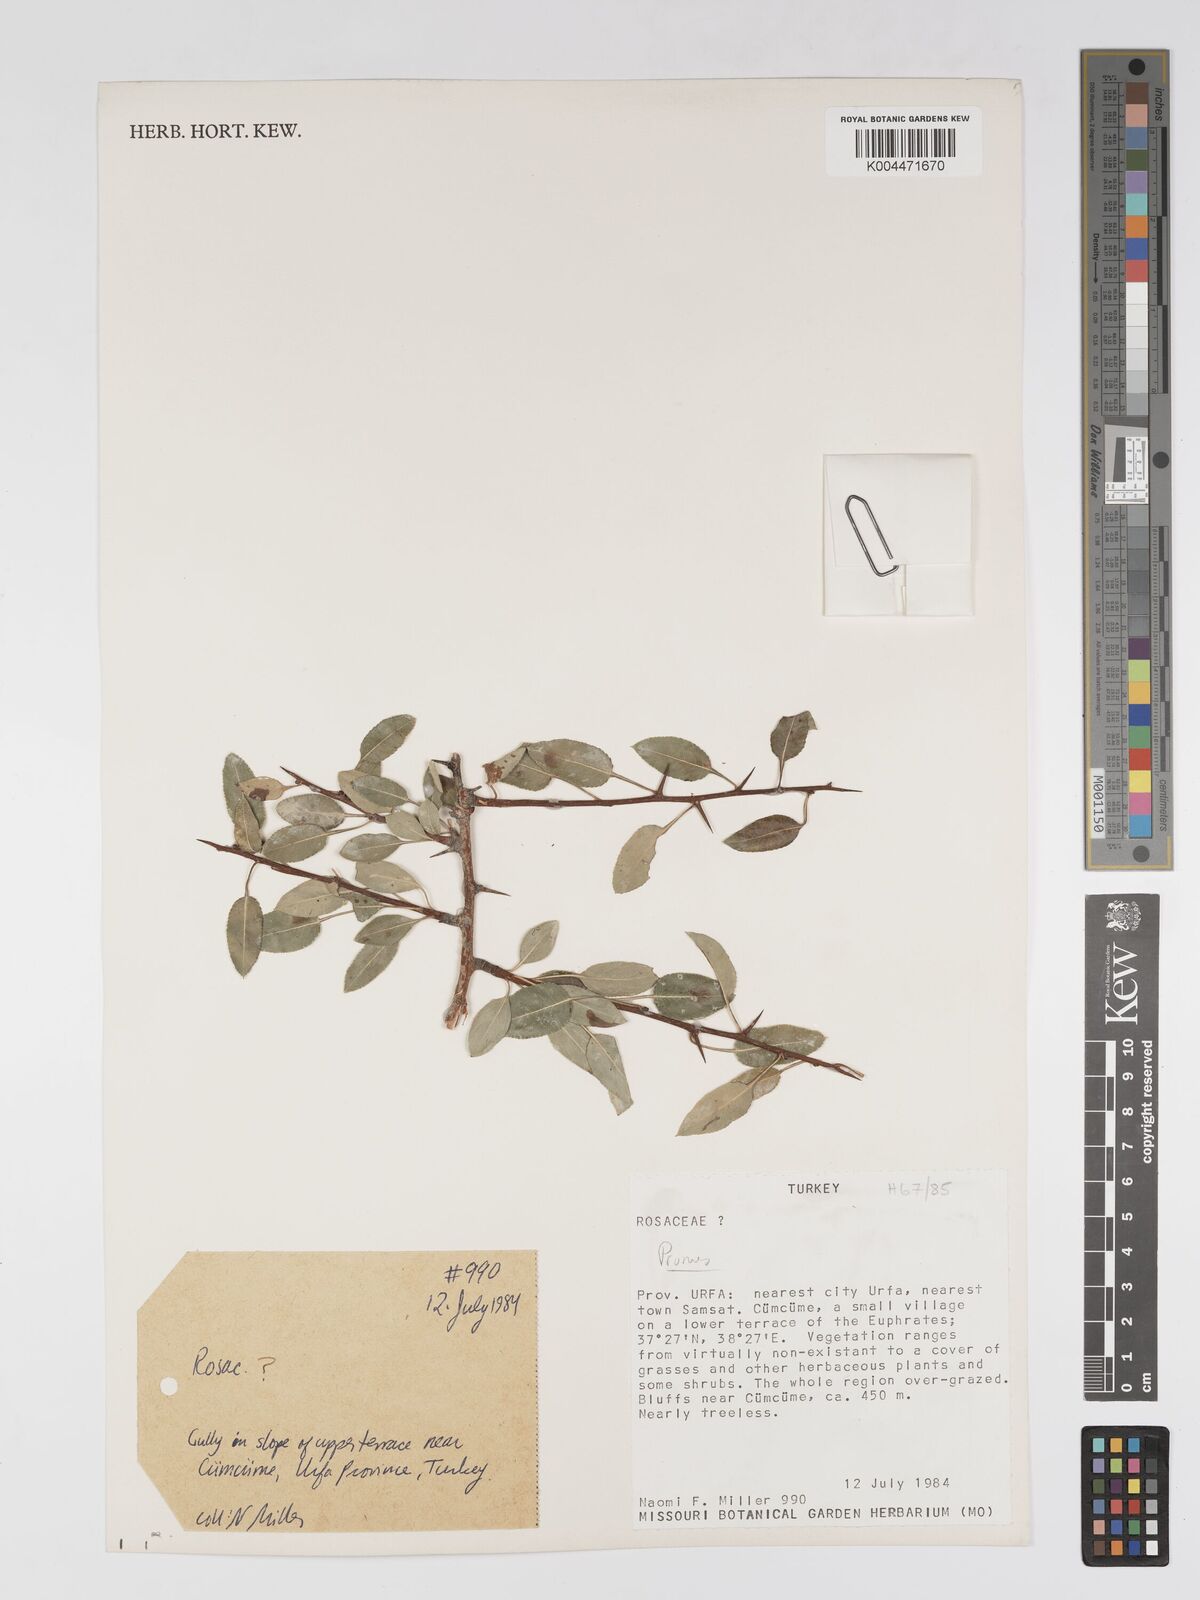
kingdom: Plantae
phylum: Tracheophyta
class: Magnoliopsida
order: Rosales
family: Rosaceae
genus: Prunus
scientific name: Prunus
